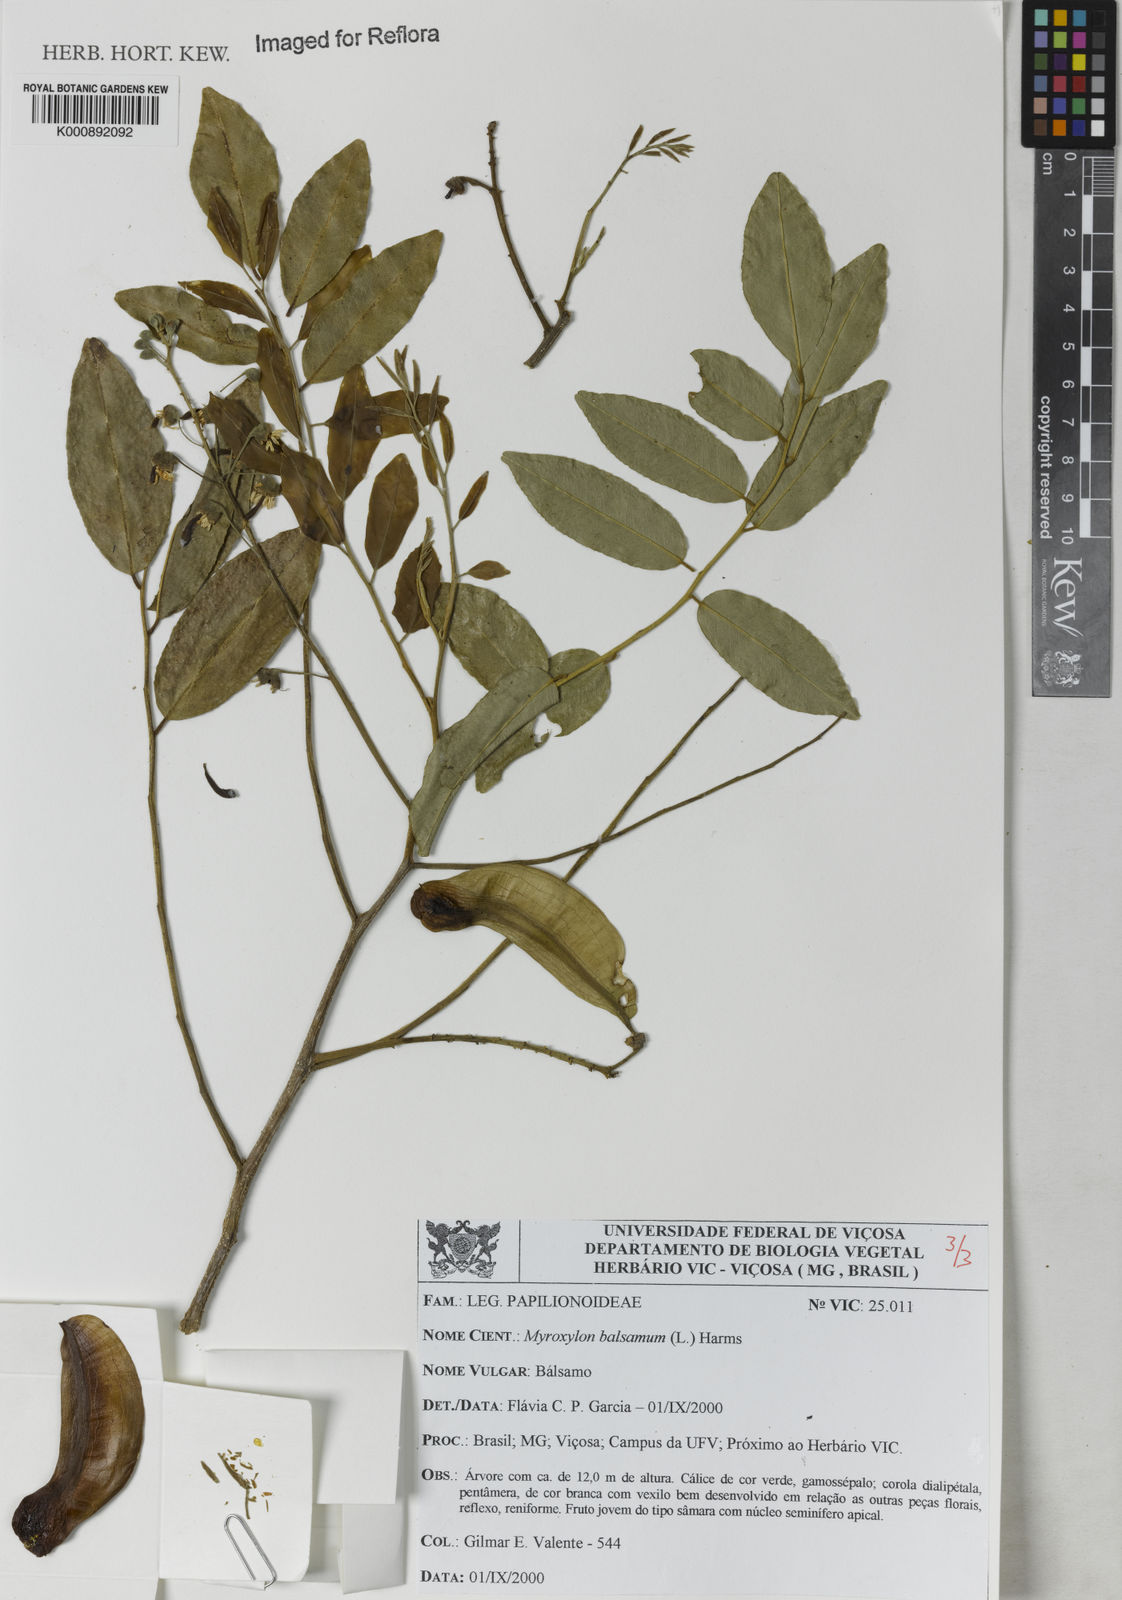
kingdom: Plantae
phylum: Tracheophyta
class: Magnoliopsida
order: Fabales
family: Fabaceae
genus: Myroxylon
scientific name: Myroxylon balsamum
